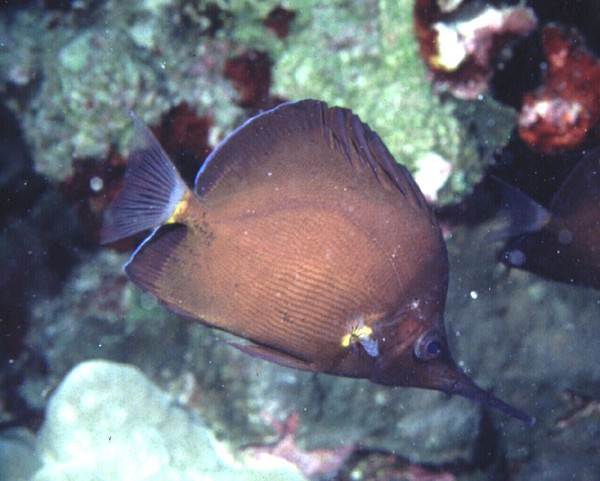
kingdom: Animalia
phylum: Chordata
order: Perciformes
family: Chaetodontidae
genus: Forcipiger
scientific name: Forcipiger longirostris
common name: Longnose butterflyfish
